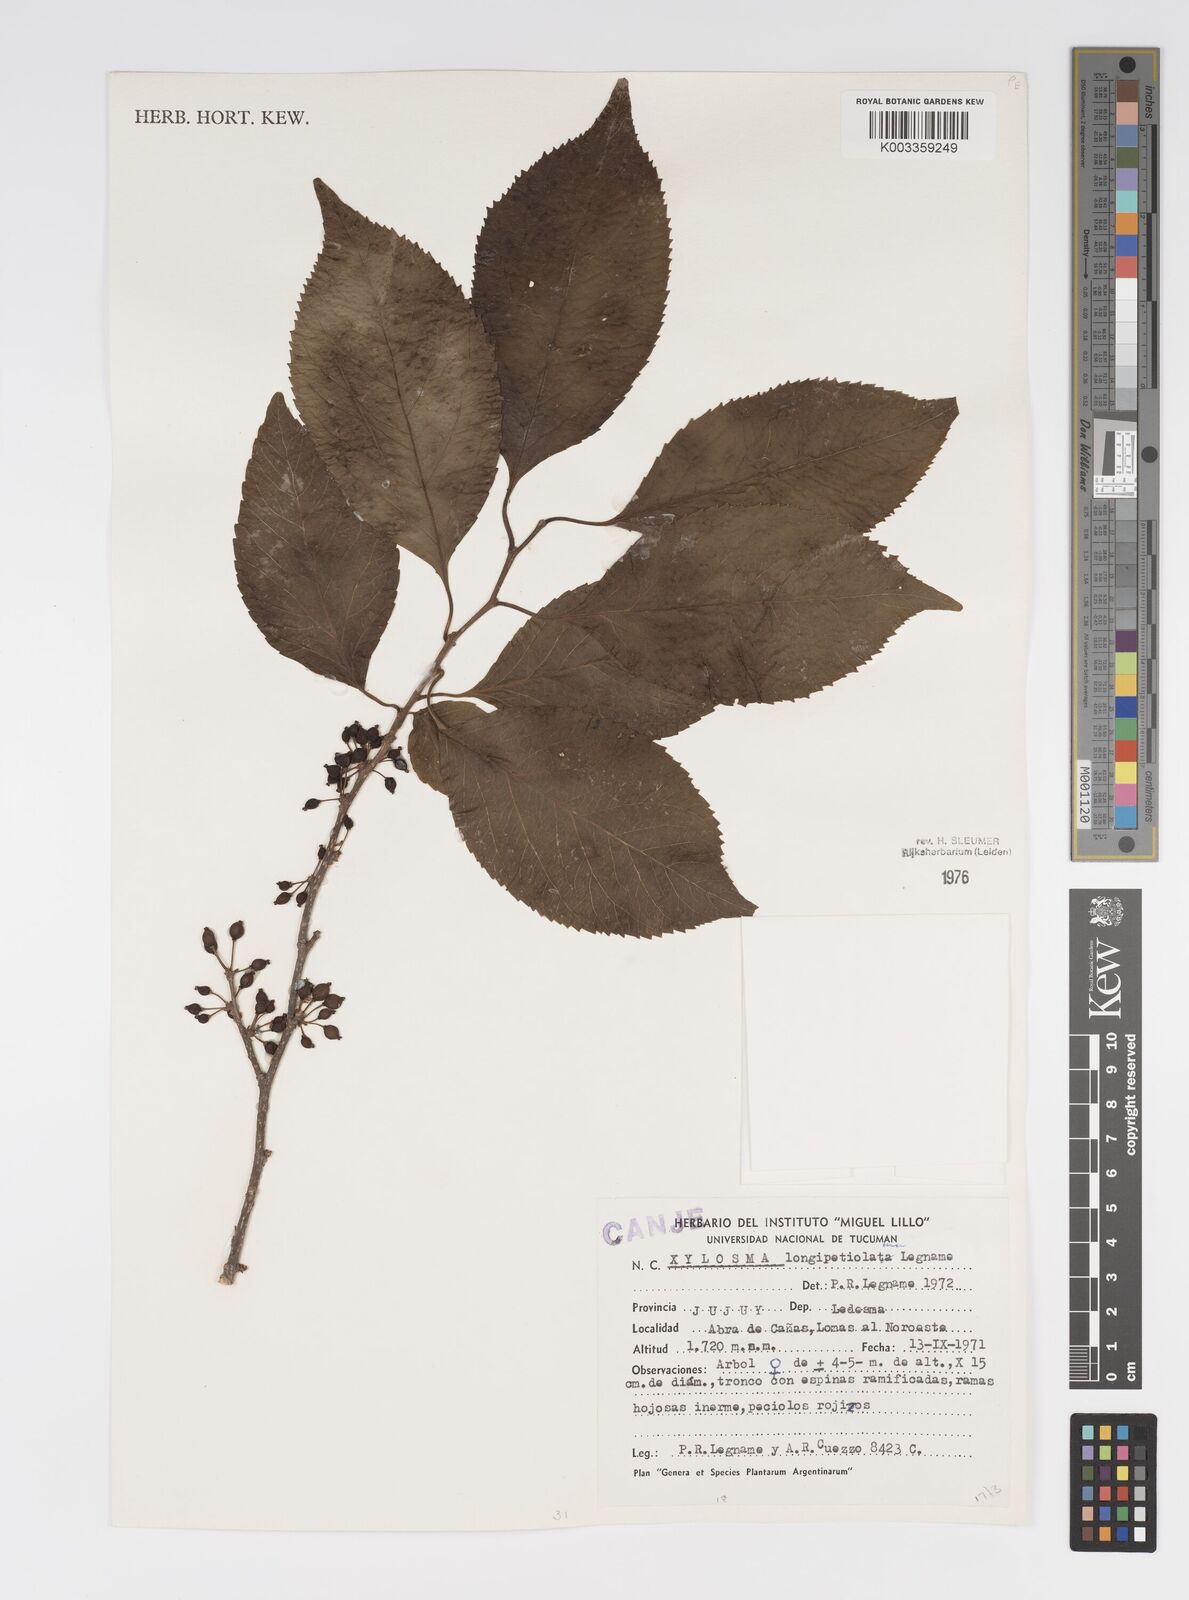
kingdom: Plantae
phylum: Tracheophyta
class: Magnoliopsida
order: Malpighiales
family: Salicaceae
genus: Xylosma
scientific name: Xylosma longipetiolata
